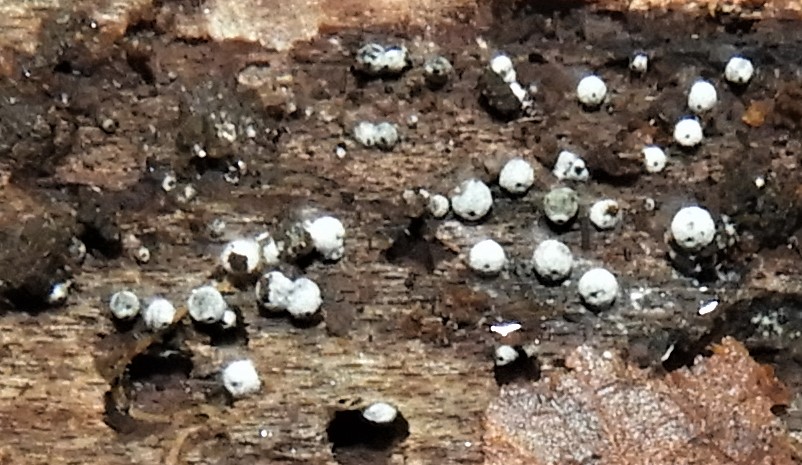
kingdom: Fungi
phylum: Ascomycota
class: Sordariomycetes
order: Sordariales
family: Lasiosphaeriaceae
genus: Lasiosphaeria
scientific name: Lasiosphaeria ovina
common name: fåre-kernesvamp
